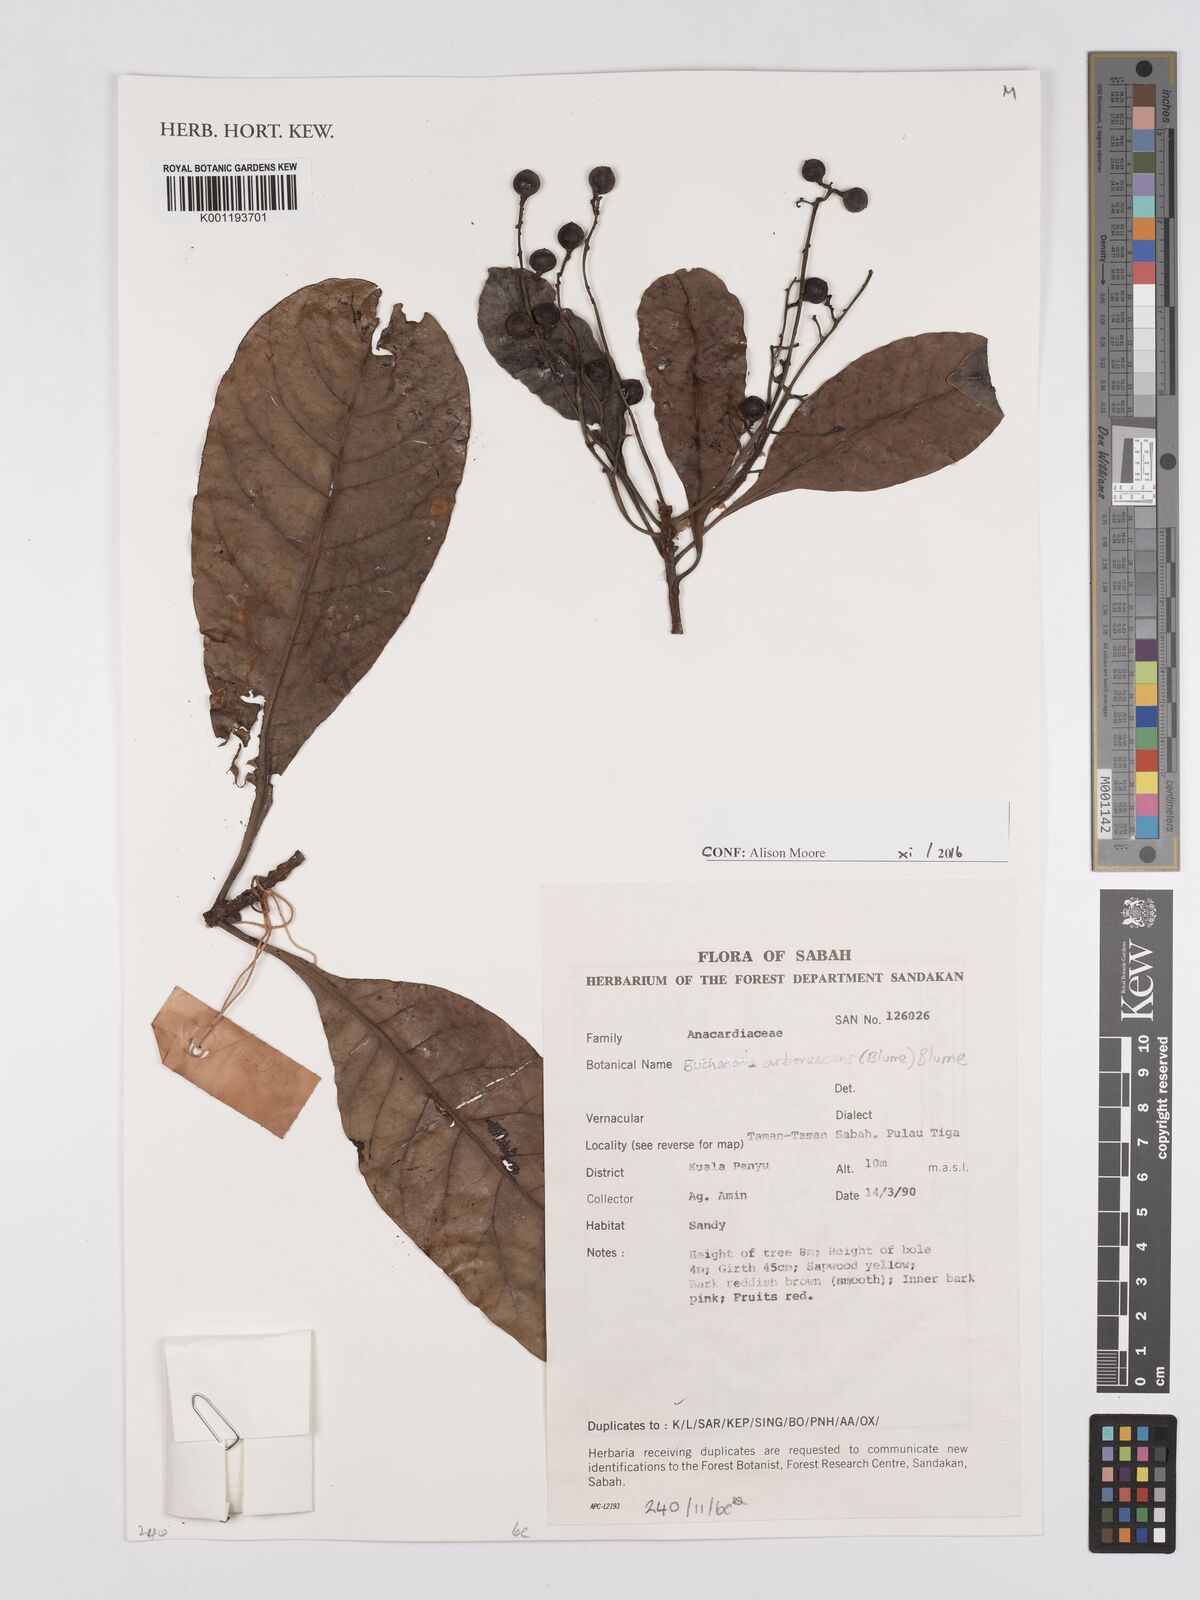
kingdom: Plantae
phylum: Tracheophyta
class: Magnoliopsida
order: Sapindales
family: Anacardiaceae
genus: Buchanania
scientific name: Buchanania arborescens
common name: Sparrow’s mango
